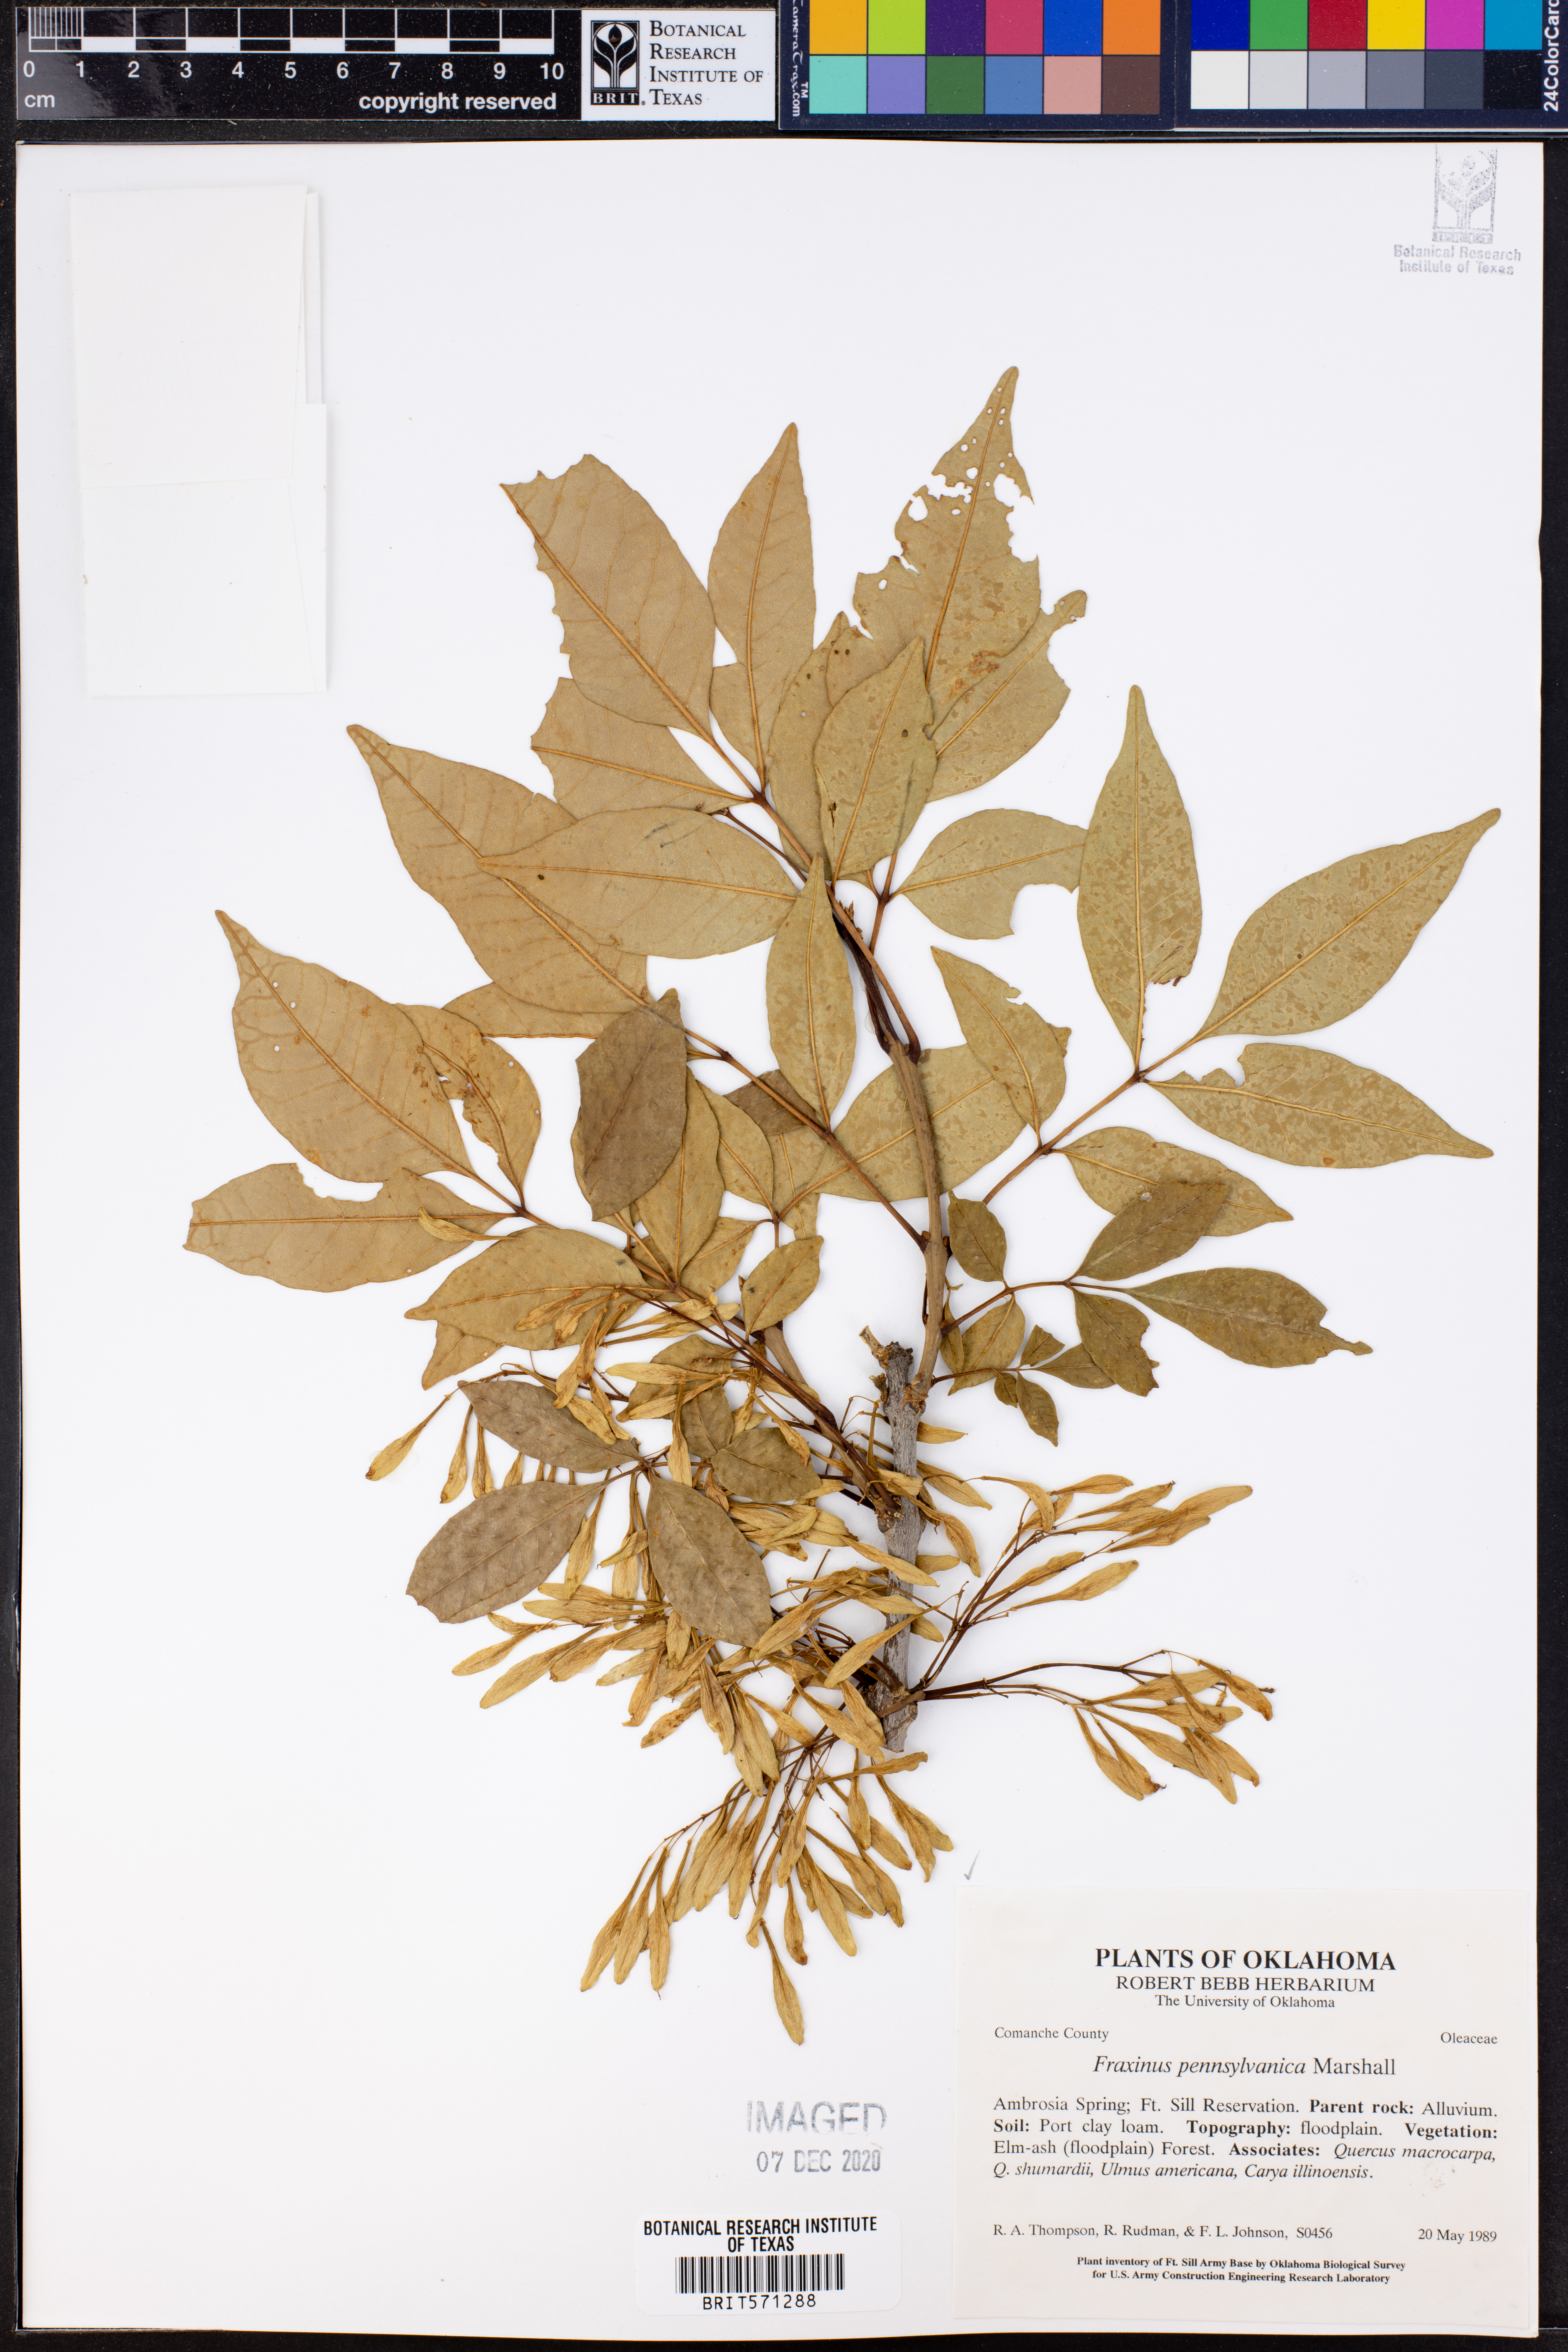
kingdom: Plantae
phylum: Tracheophyta
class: Magnoliopsida
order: Lamiales
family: Oleaceae
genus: Fraxinus
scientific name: Fraxinus pennsylvanica
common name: Green ash
